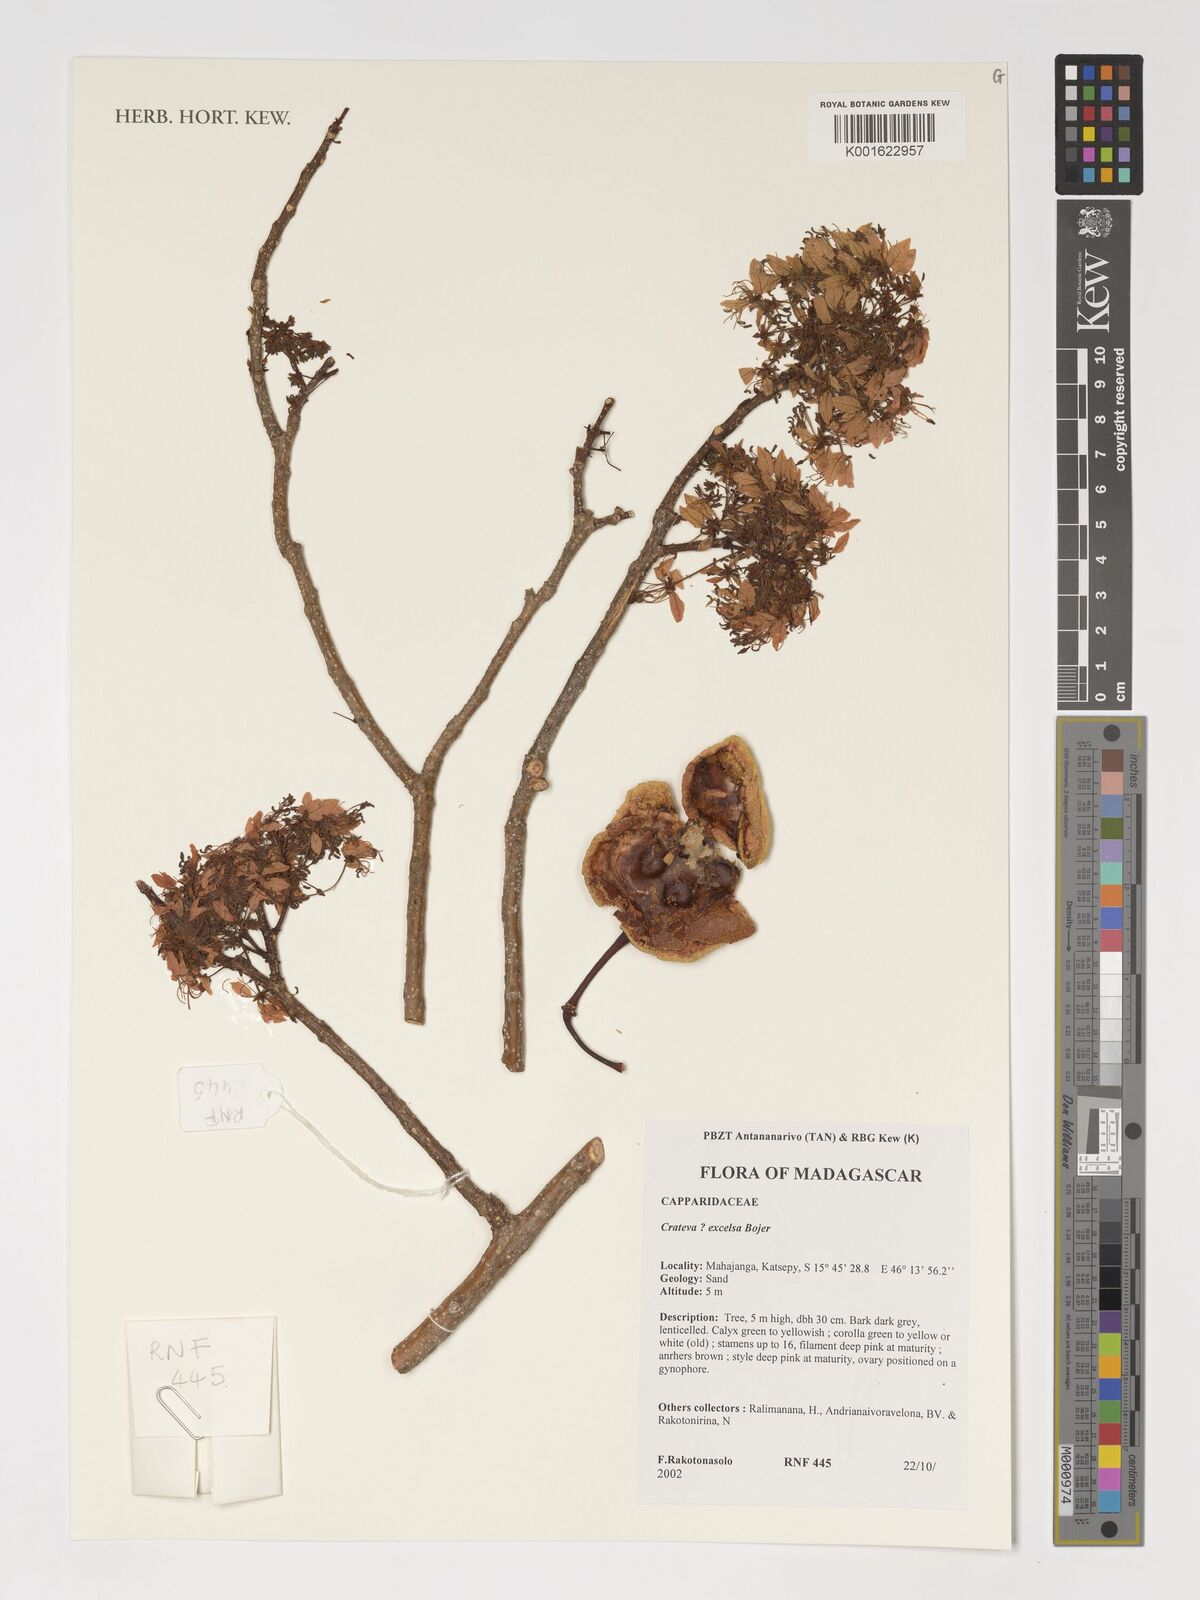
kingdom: Plantae
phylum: Tracheophyta
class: Magnoliopsida
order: Brassicales
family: Capparaceae
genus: Crateva
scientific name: Crateva excelsa
